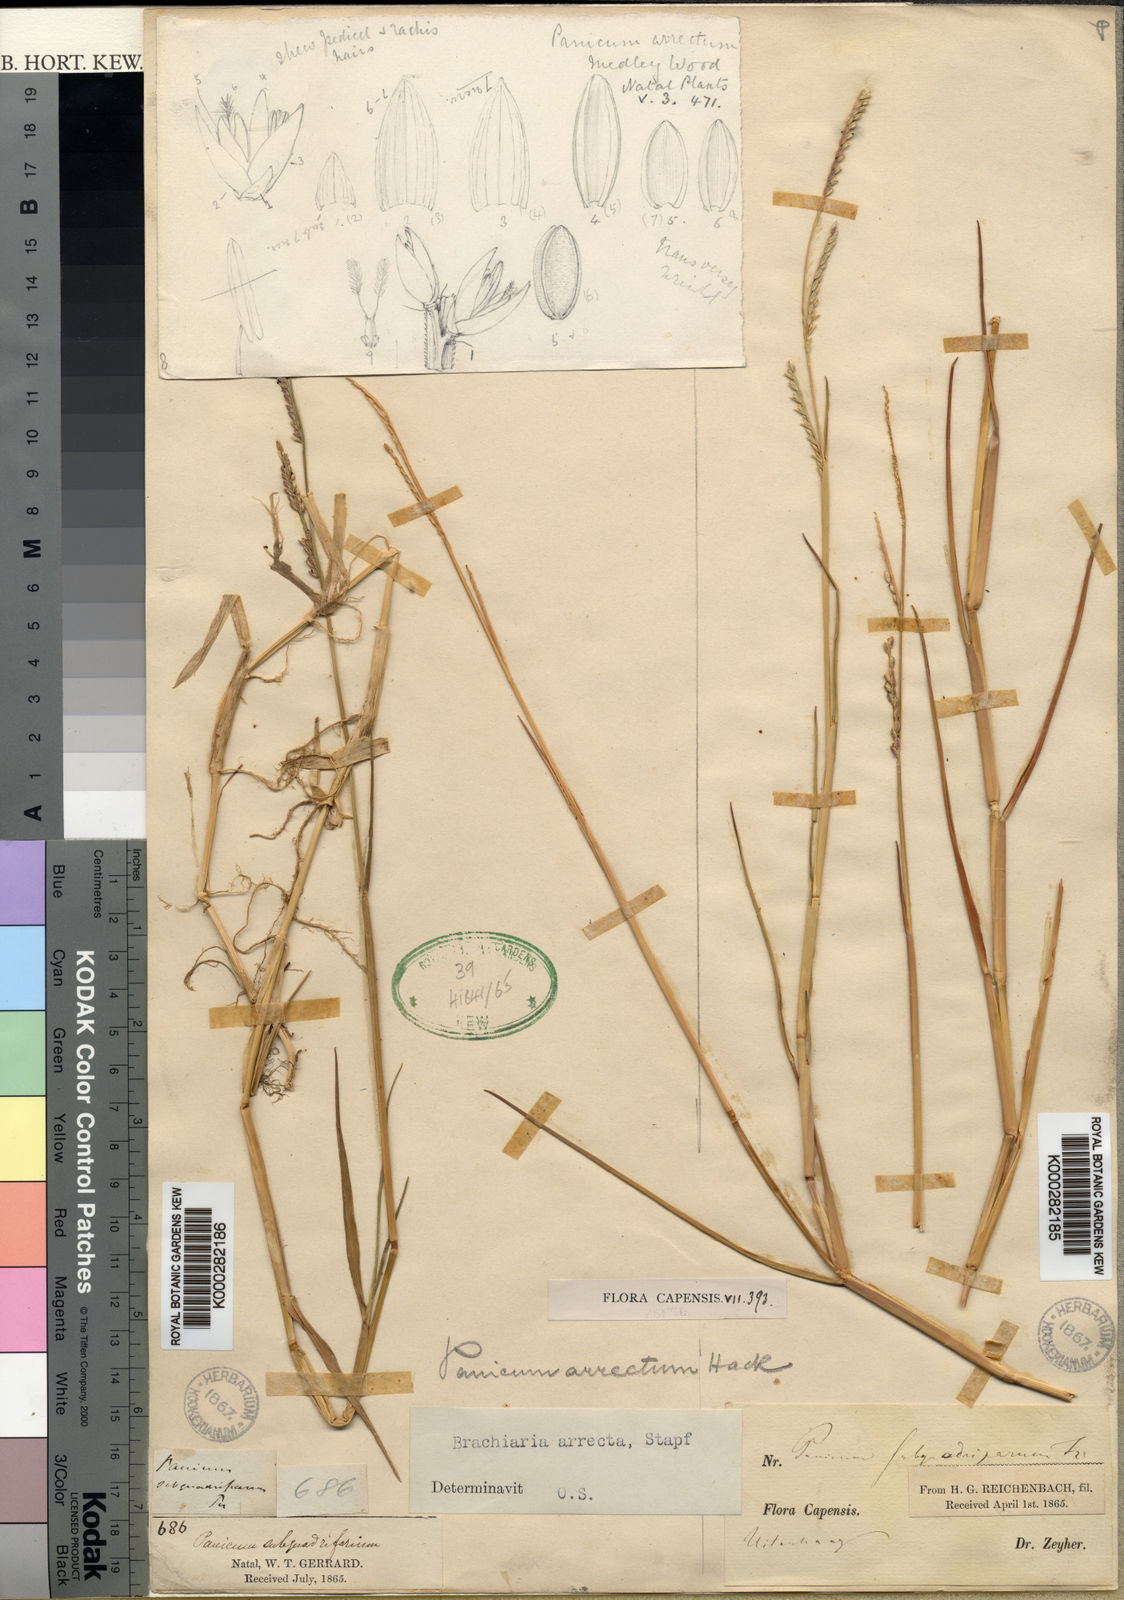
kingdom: Plantae
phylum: Tracheophyta
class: Liliopsida
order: Poales
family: Poaceae
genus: Urochloa
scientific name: Urochloa arrecta
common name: African signalgrass
